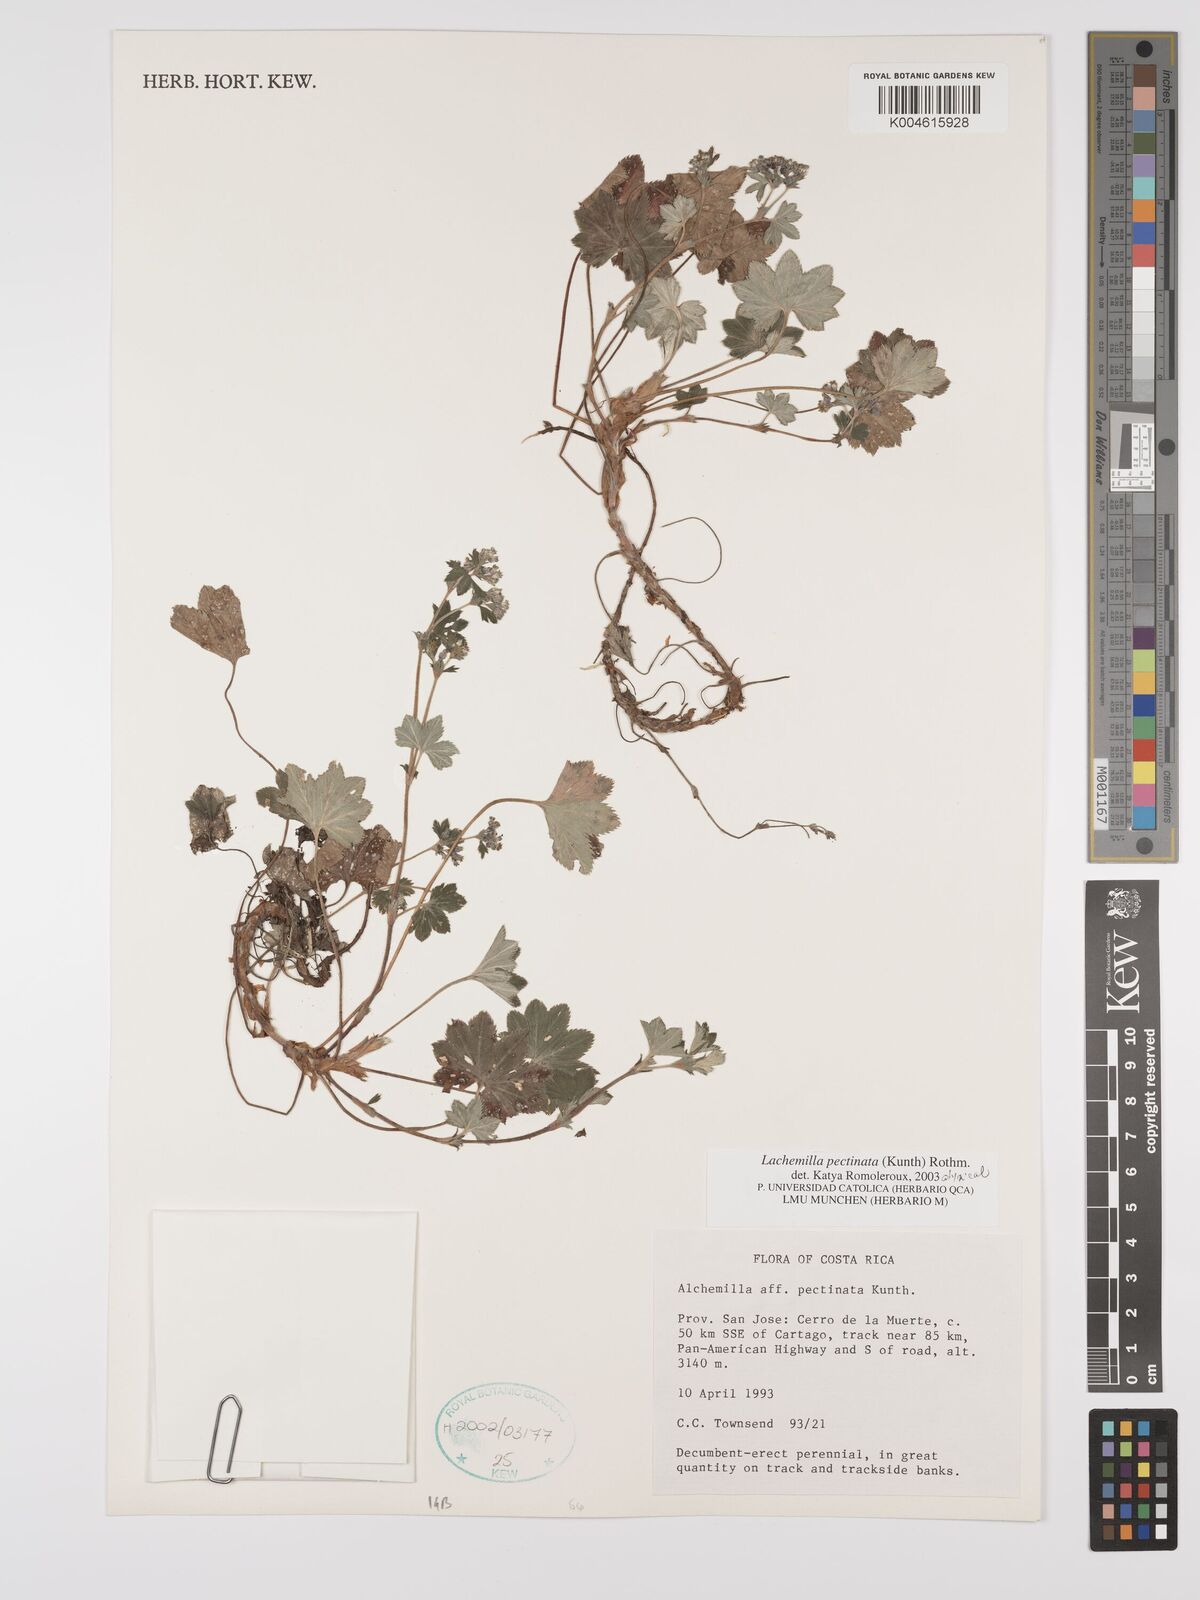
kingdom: Plantae
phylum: Tracheophyta
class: Magnoliopsida
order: Rosales
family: Rosaceae
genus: Lachemilla
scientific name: Lachemilla pectinata
